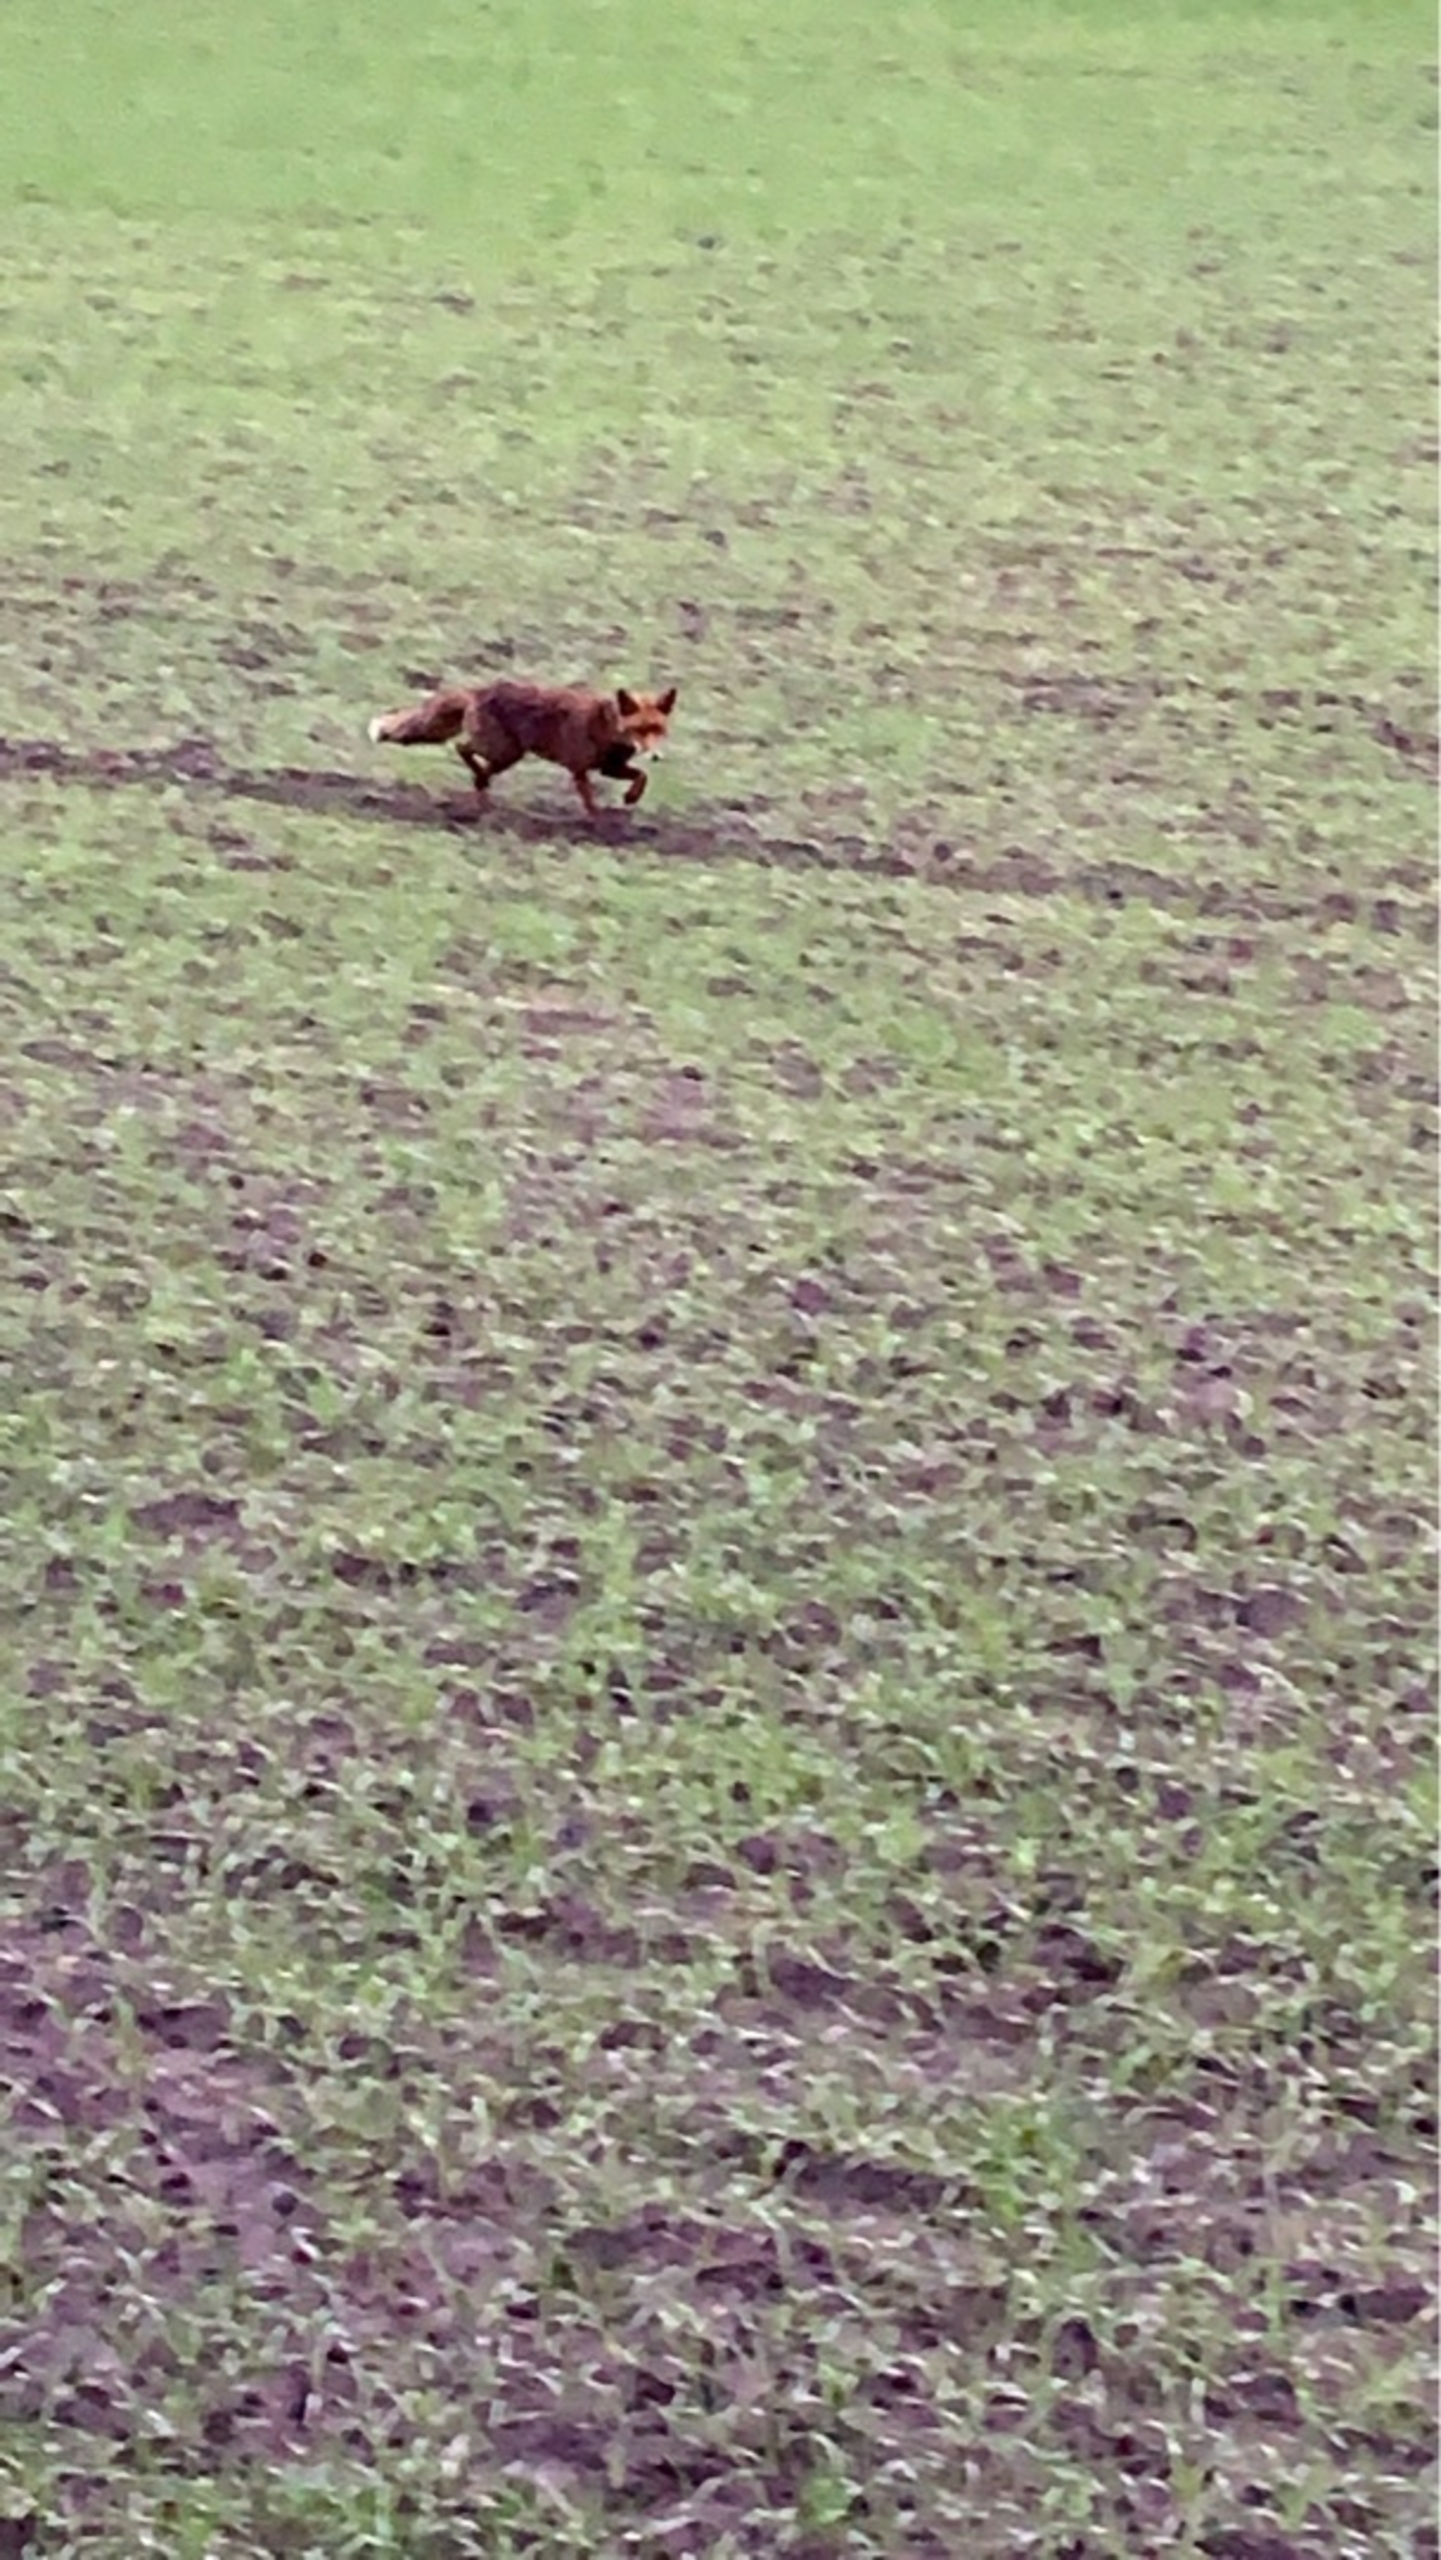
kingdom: Animalia
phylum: Chordata
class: Mammalia
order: Carnivora
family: Canidae
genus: Vulpes
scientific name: Vulpes vulpes
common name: Ræv
